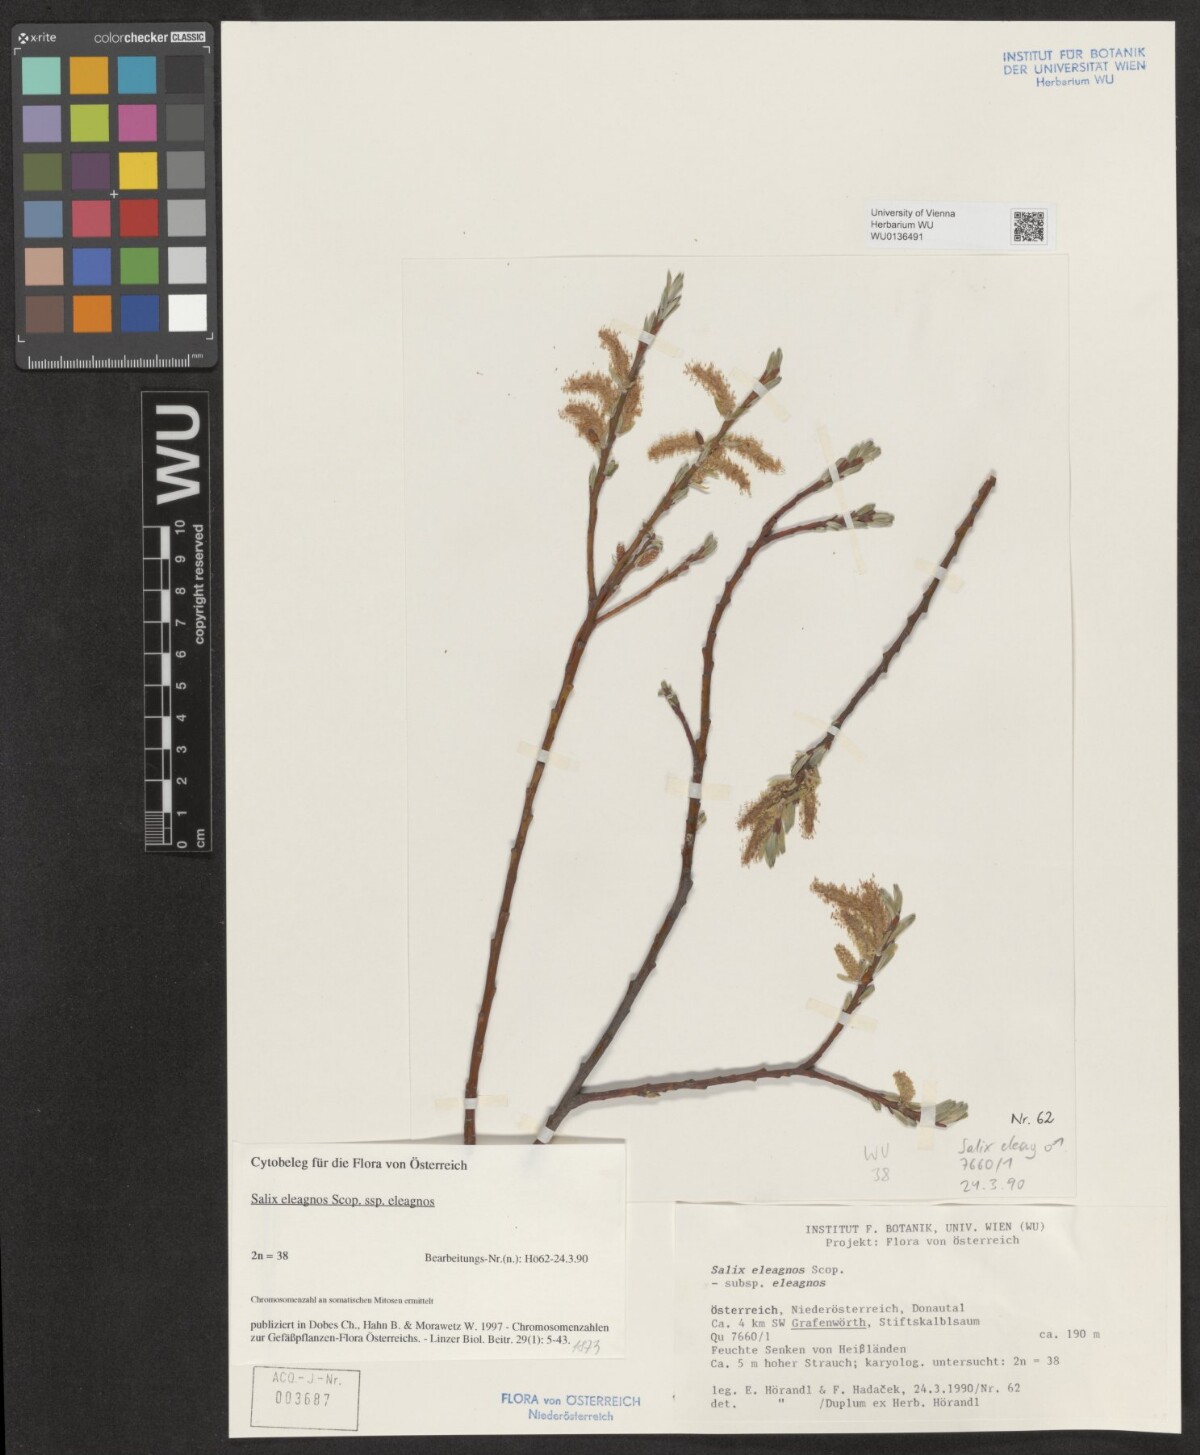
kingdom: Plantae
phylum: Tracheophyta
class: Magnoliopsida
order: Malpighiales
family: Salicaceae
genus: Salix
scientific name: Salix eleagnos
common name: Elaeagnus willow
